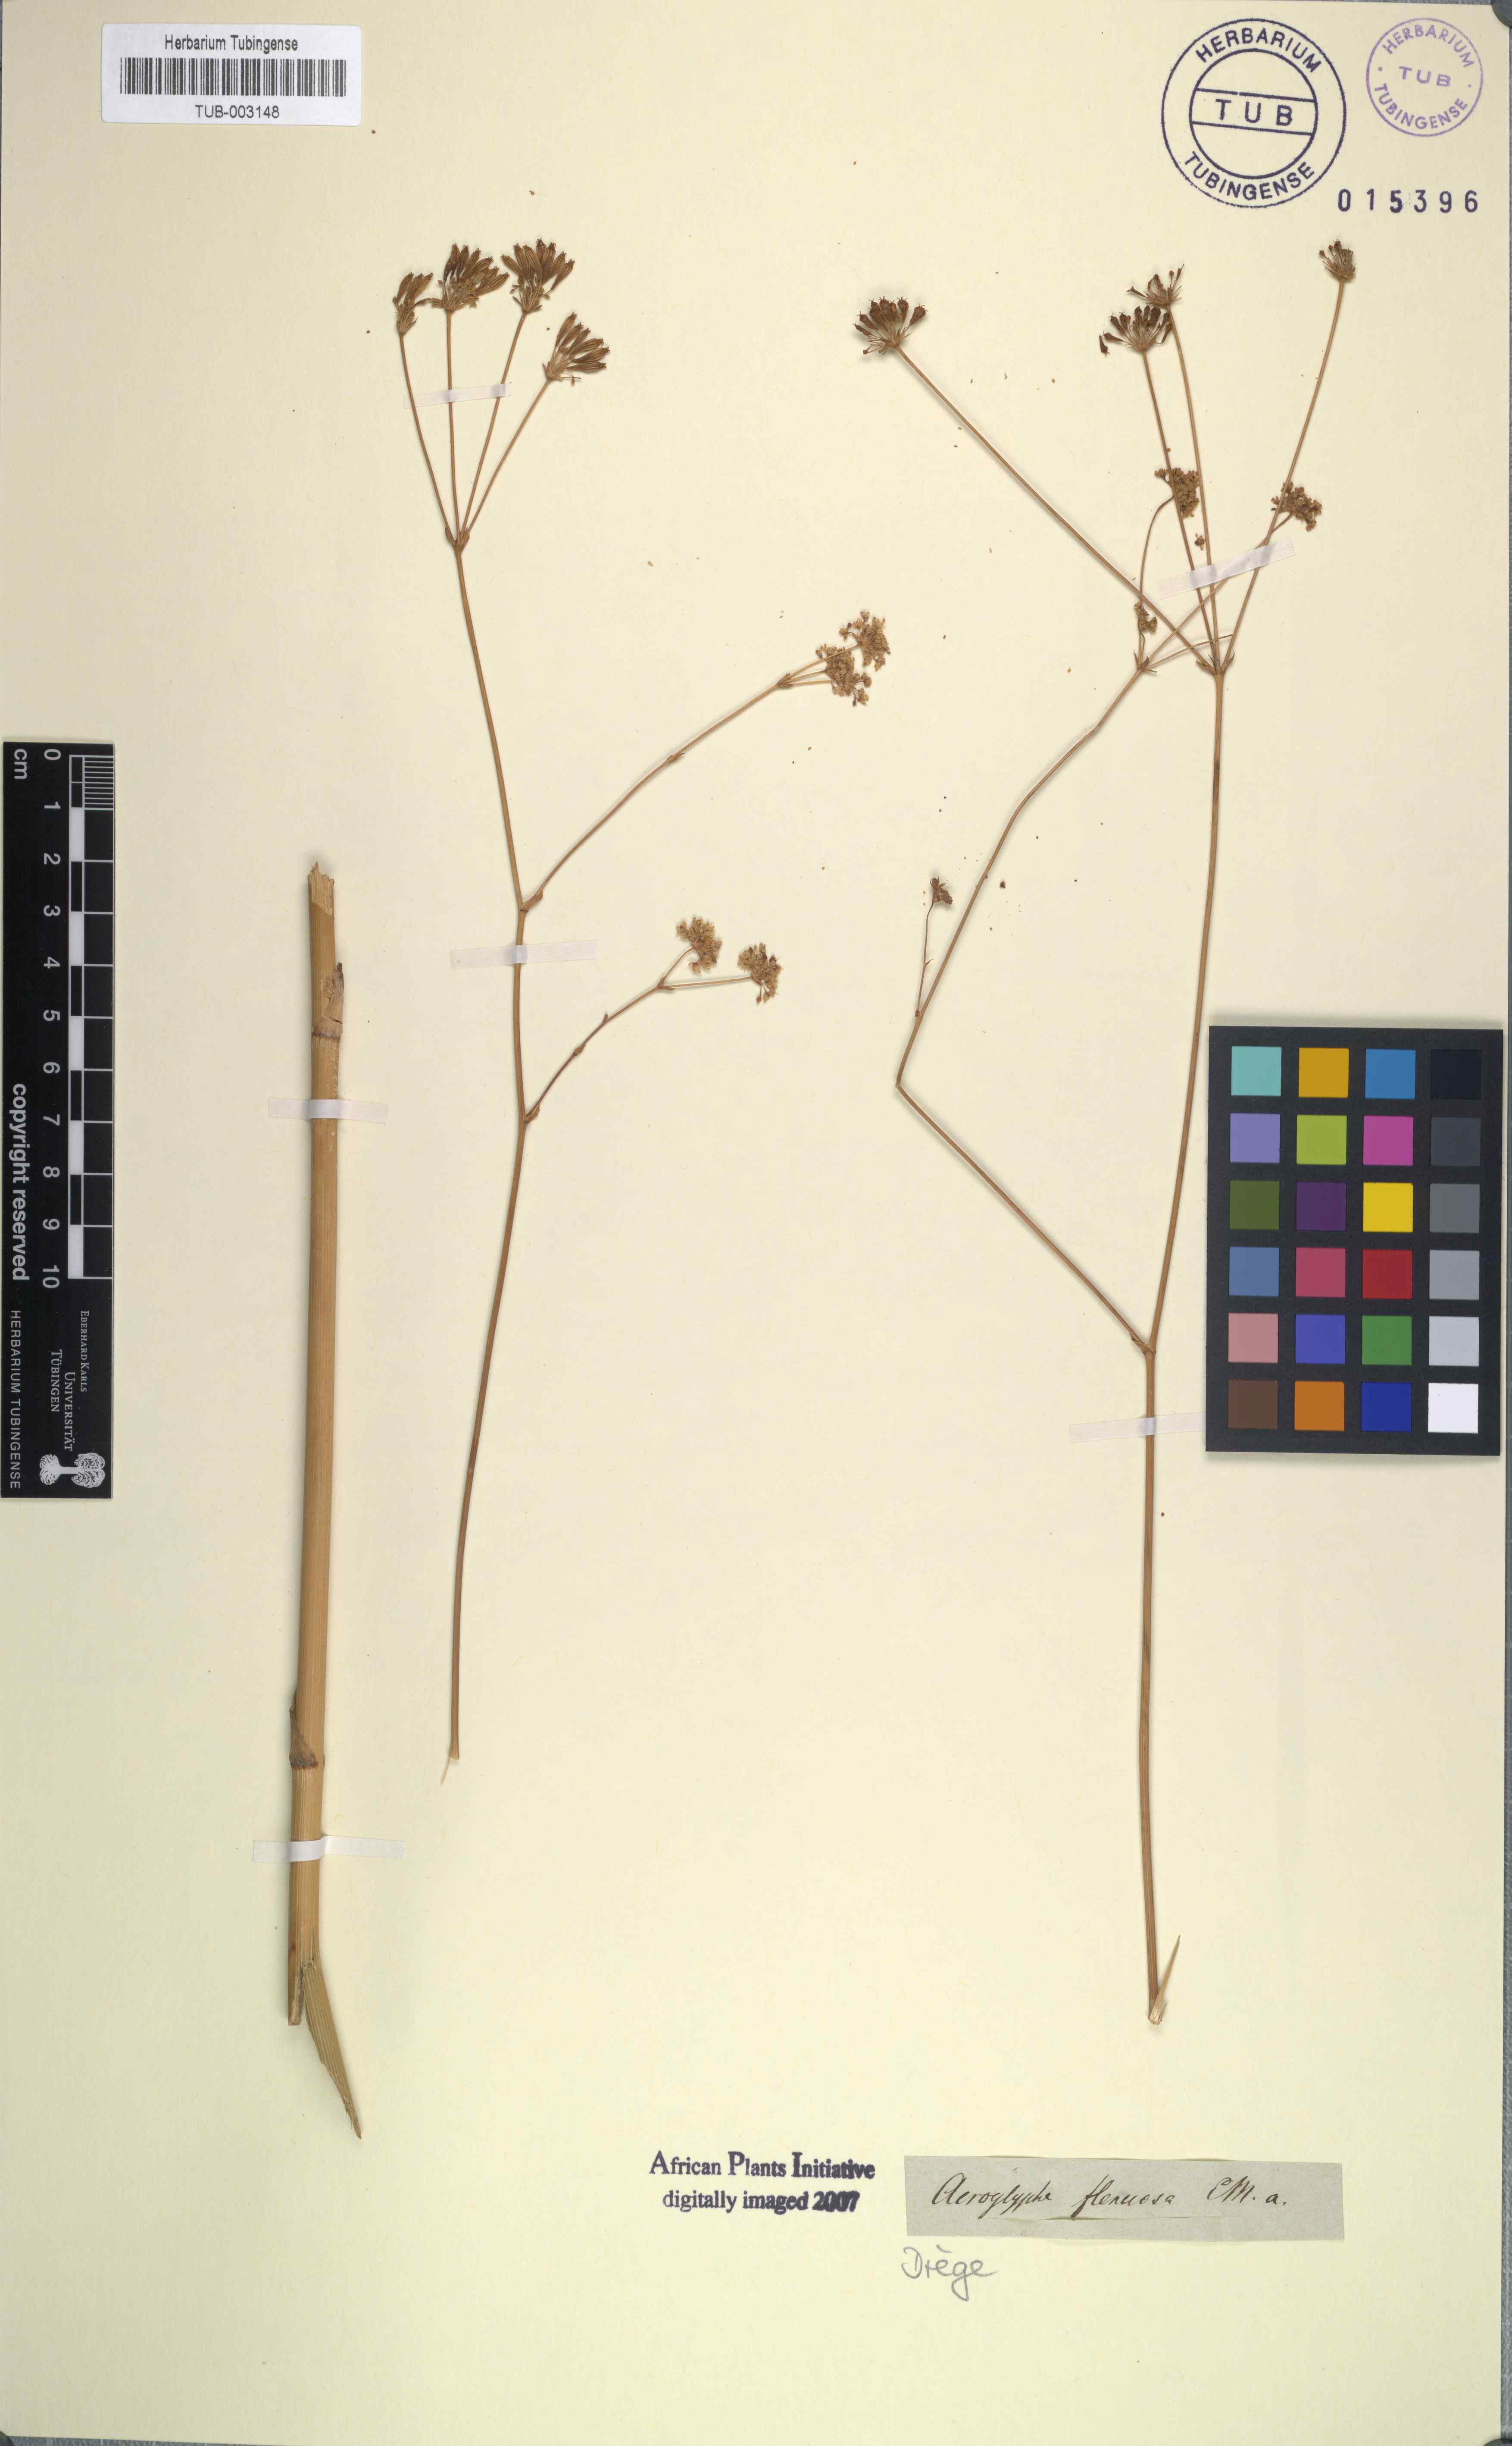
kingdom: Plantae
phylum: Tracheophyta
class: Magnoliopsida
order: Apiales
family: Apiaceae
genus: Annesorhiza
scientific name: Annesorhiza grandiflora
